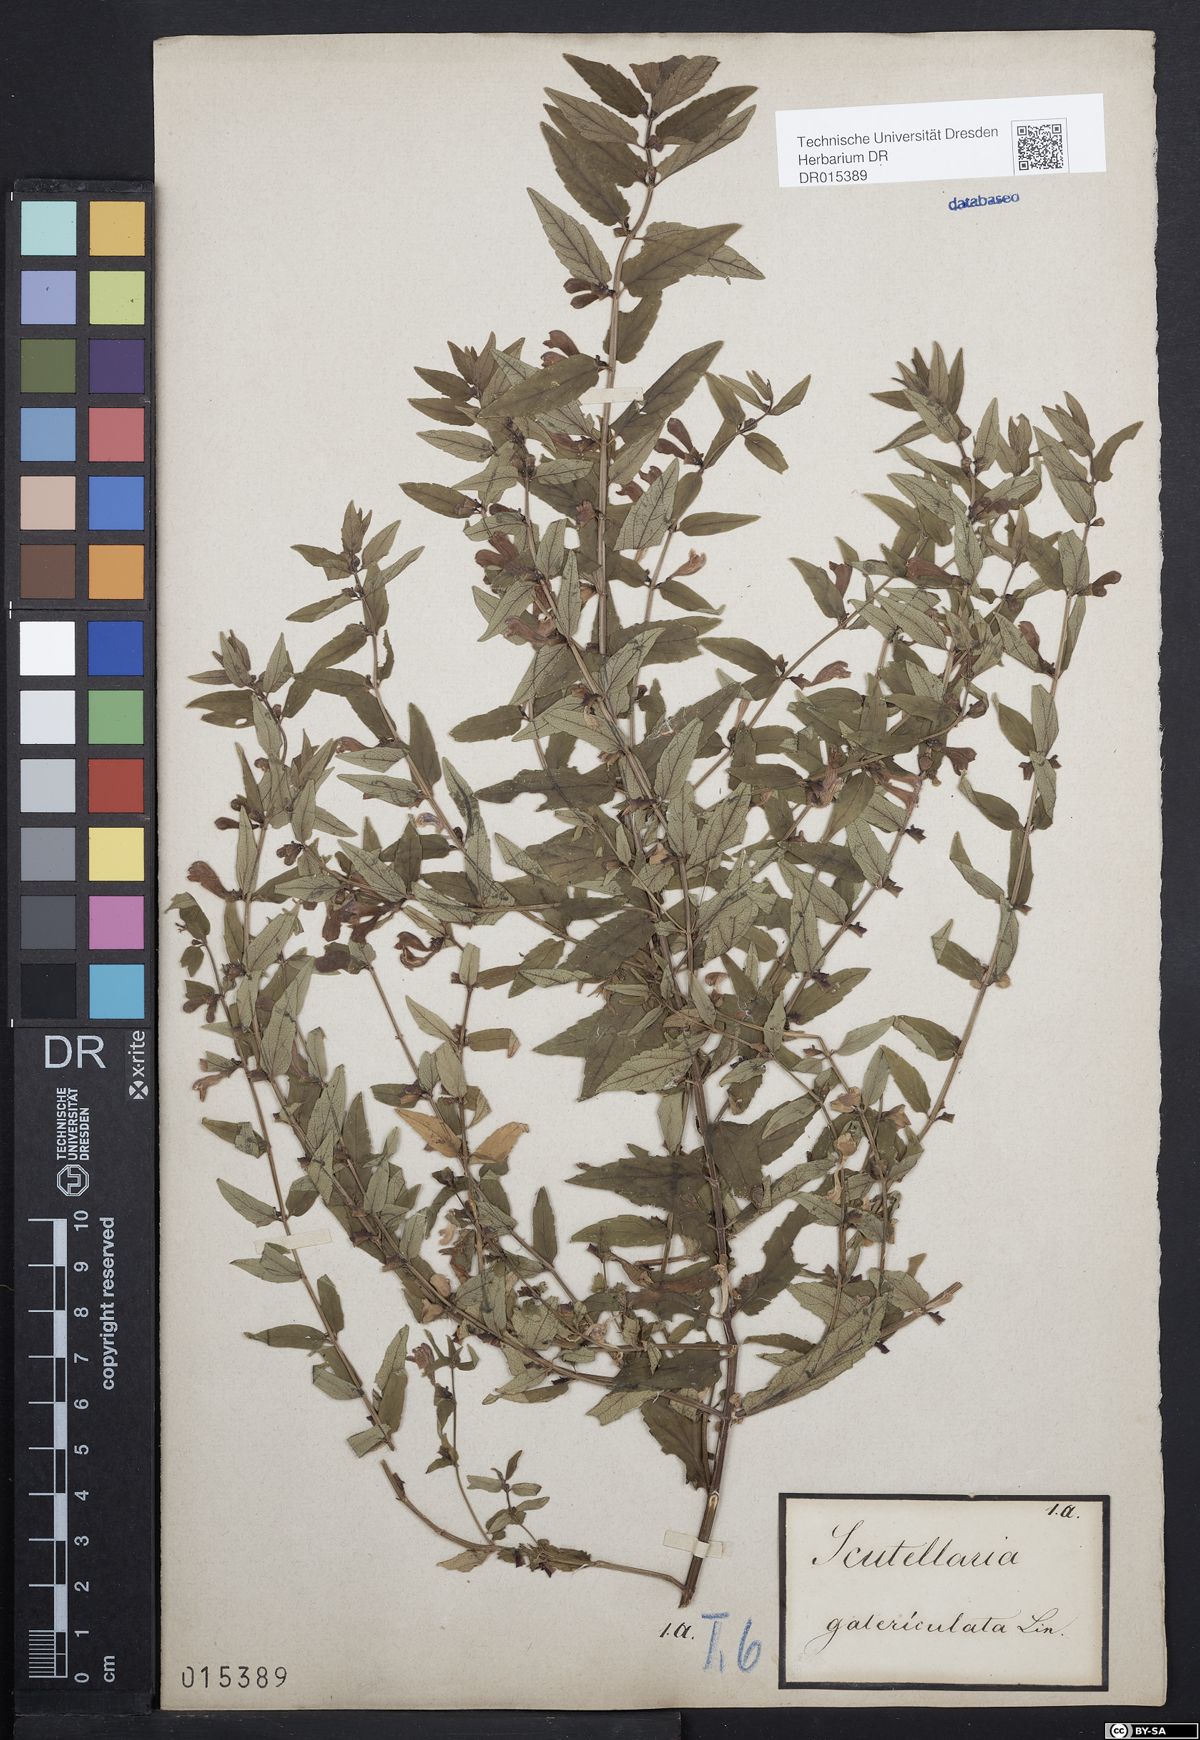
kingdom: Plantae
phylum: Tracheophyta
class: Magnoliopsida
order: Lamiales
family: Lamiaceae
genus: Scutellaria
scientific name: Scutellaria galericulata
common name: Skullcap
